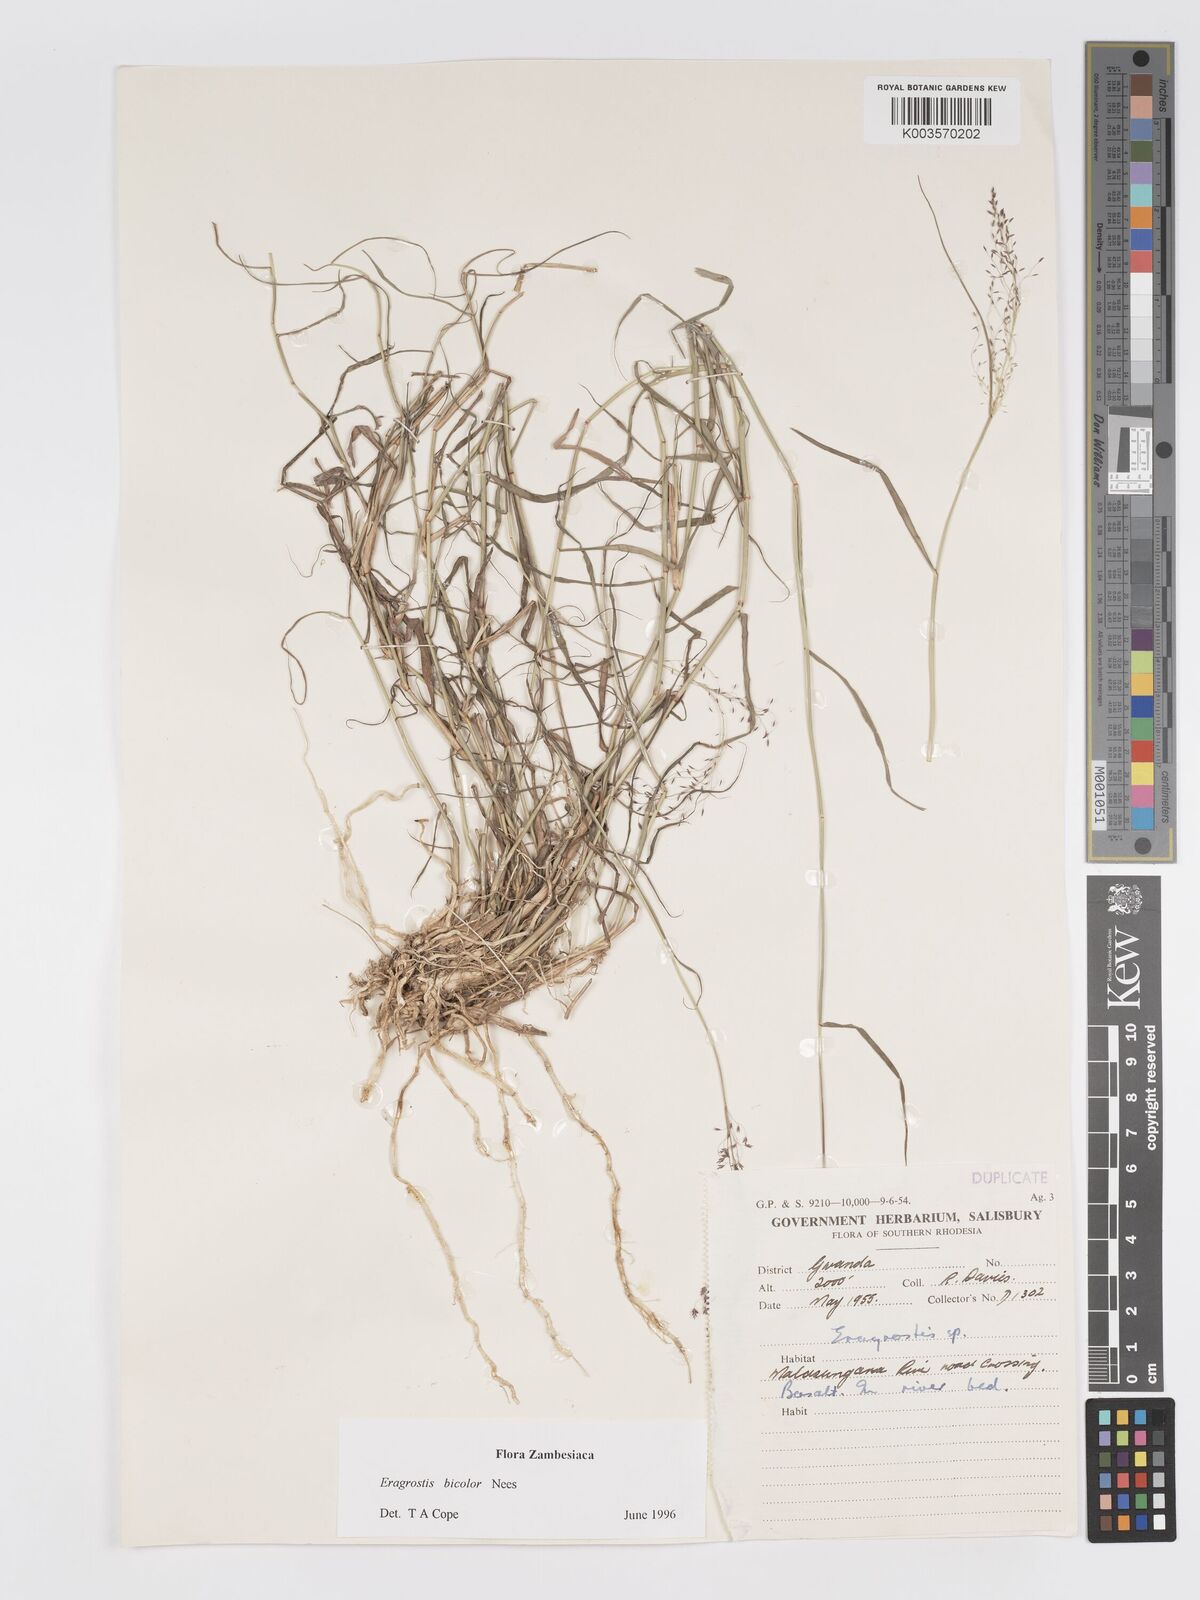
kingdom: Plantae
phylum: Tracheophyta
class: Liliopsida
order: Poales
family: Poaceae
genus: Eragrostis
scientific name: Eragrostis bicolor
